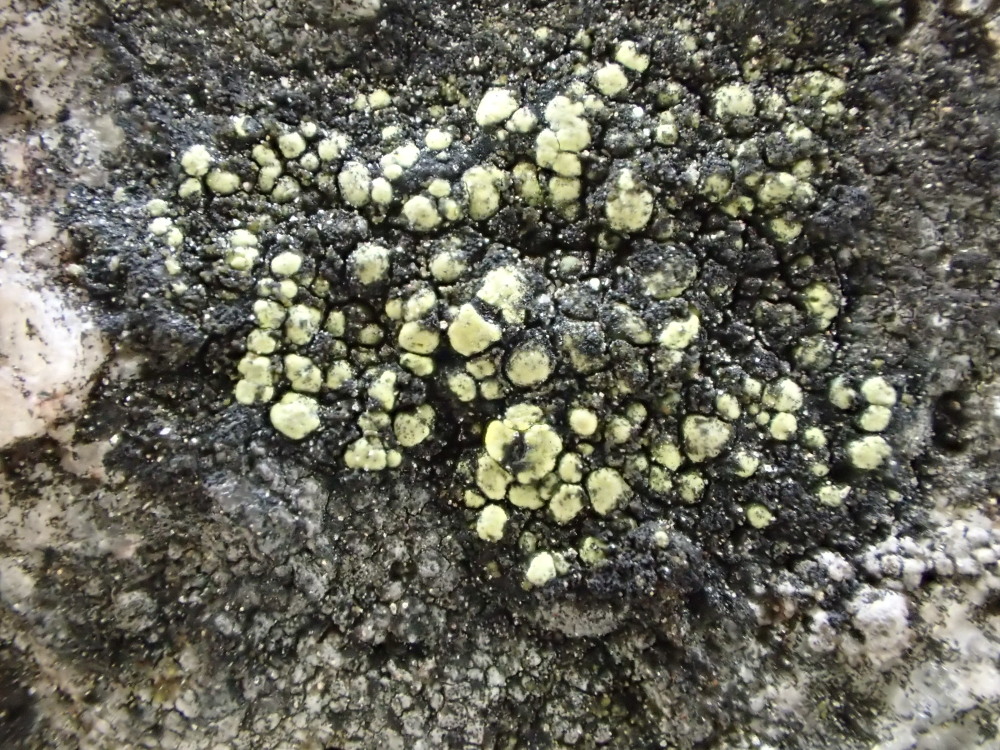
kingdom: Fungi
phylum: Ascomycota
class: Lecanoromycetes
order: Rhizocarpales
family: Rhizocarpaceae
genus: Rhizocarpon
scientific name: Rhizocarpon lecanorinum
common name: krave-landkortlav
